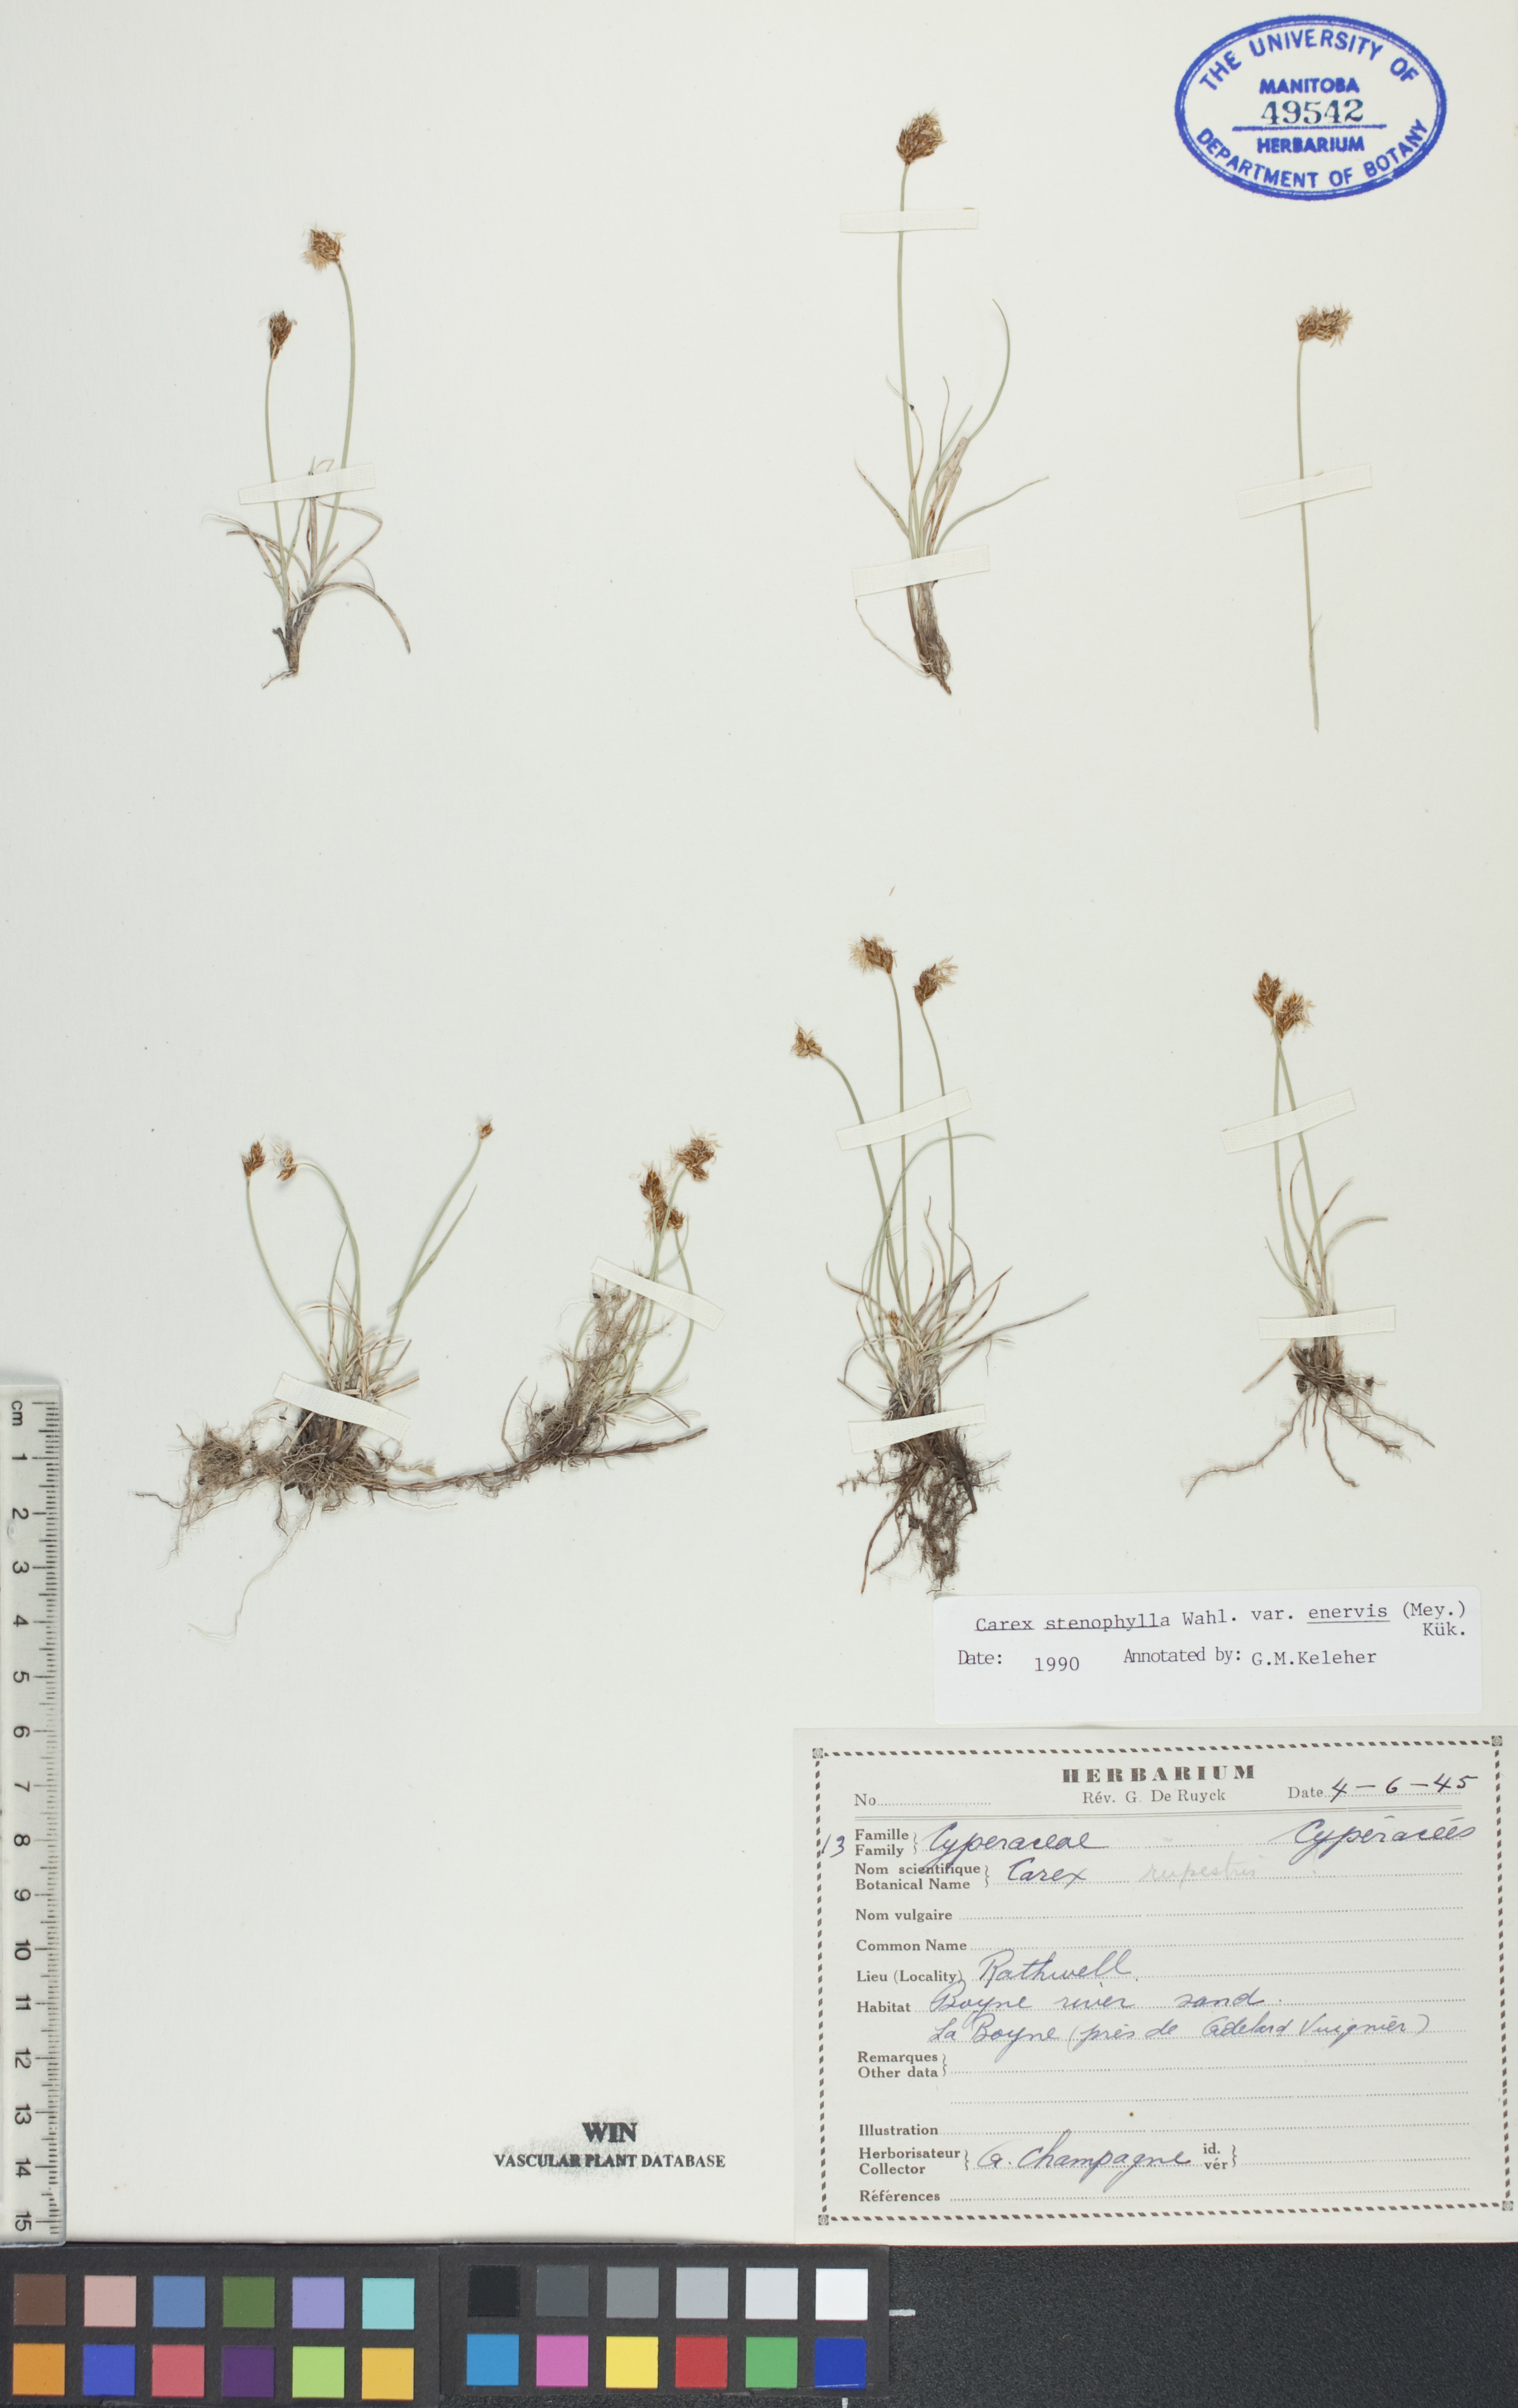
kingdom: Plantae
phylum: Tracheophyta
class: Liliopsida
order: Poales
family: Cyperaceae
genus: Carex
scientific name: Carex enervis
